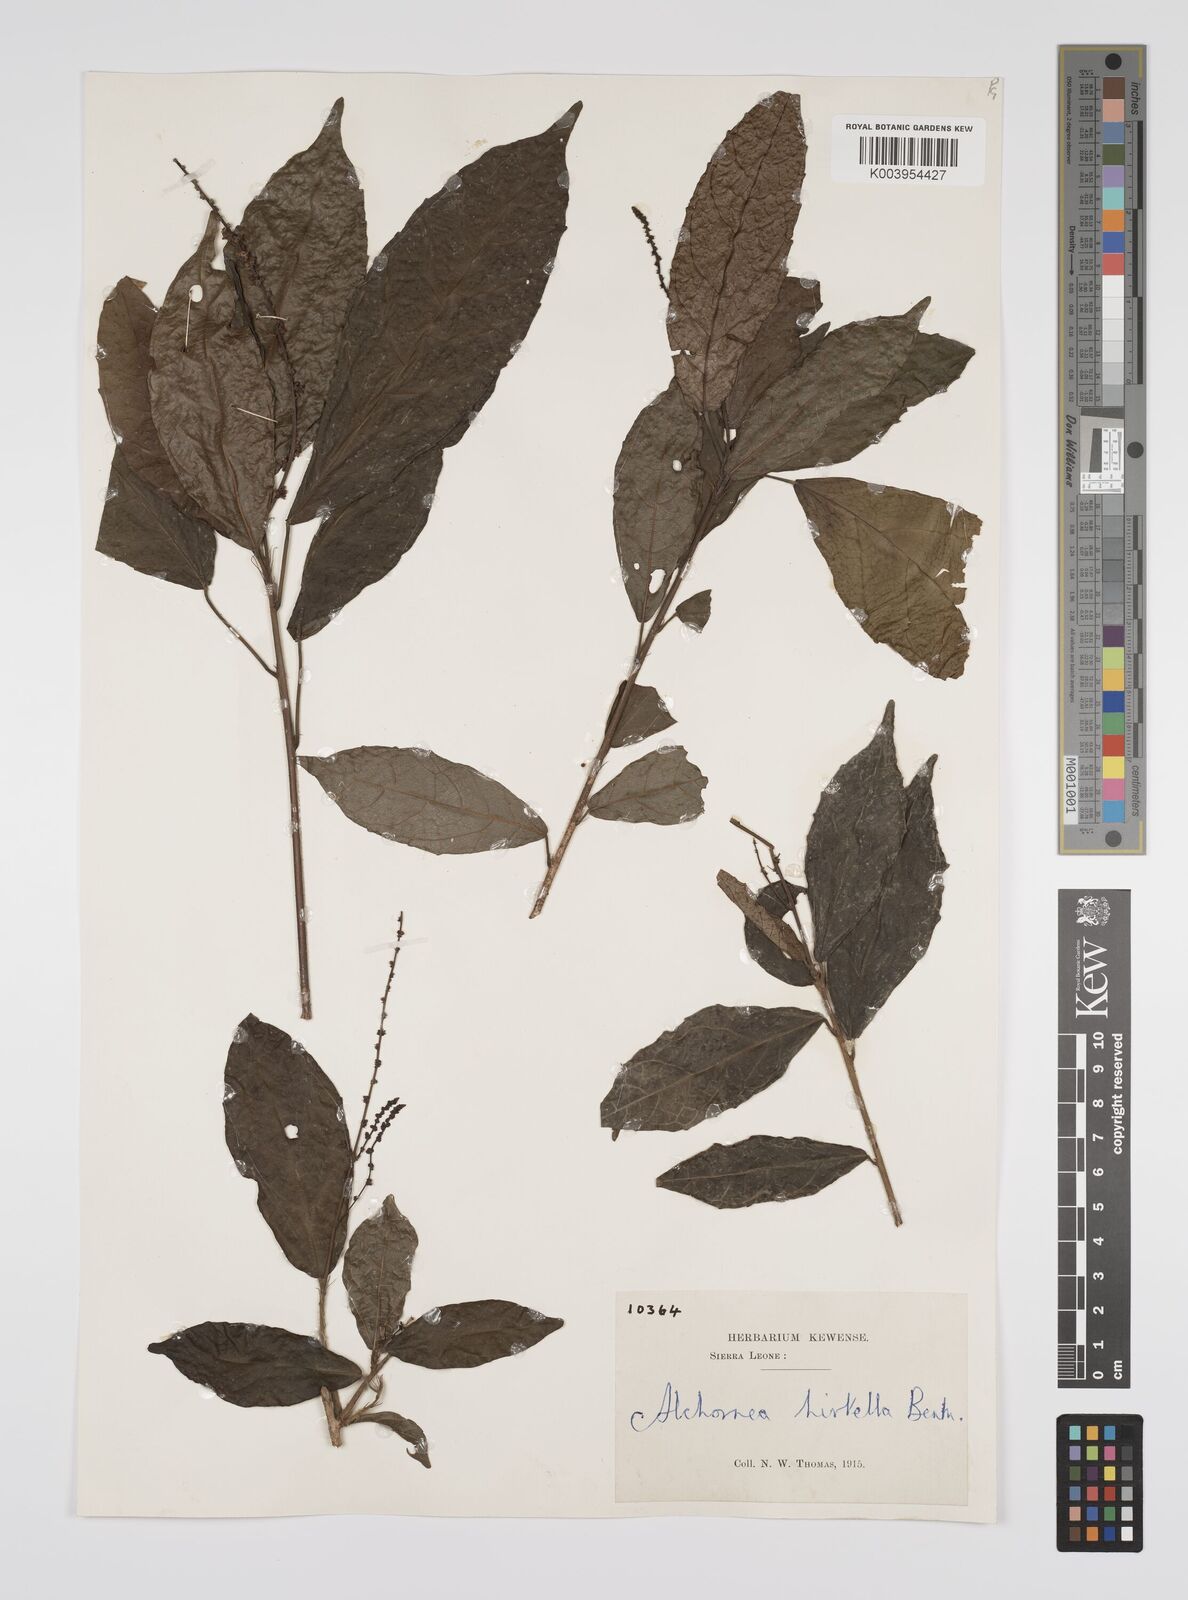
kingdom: Plantae
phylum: Tracheophyta
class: Magnoliopsida
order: Malpighiales
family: Euphorbiaceae
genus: Alchornea
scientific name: Alchornea hirtella
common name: Forest bead-string
